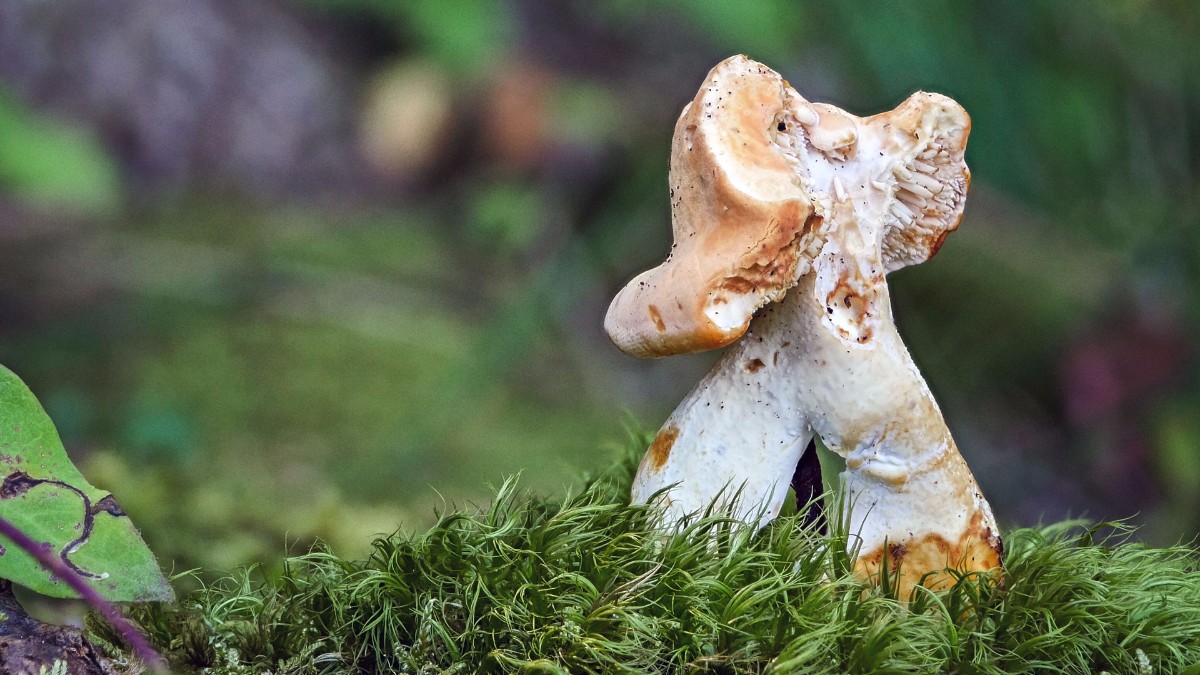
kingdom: Fungi
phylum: Basidiomycota
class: Agaricomycetes
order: Cantharellales
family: Hydnaceae
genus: Hydnum
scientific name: Hydnum
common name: pigsvamp
